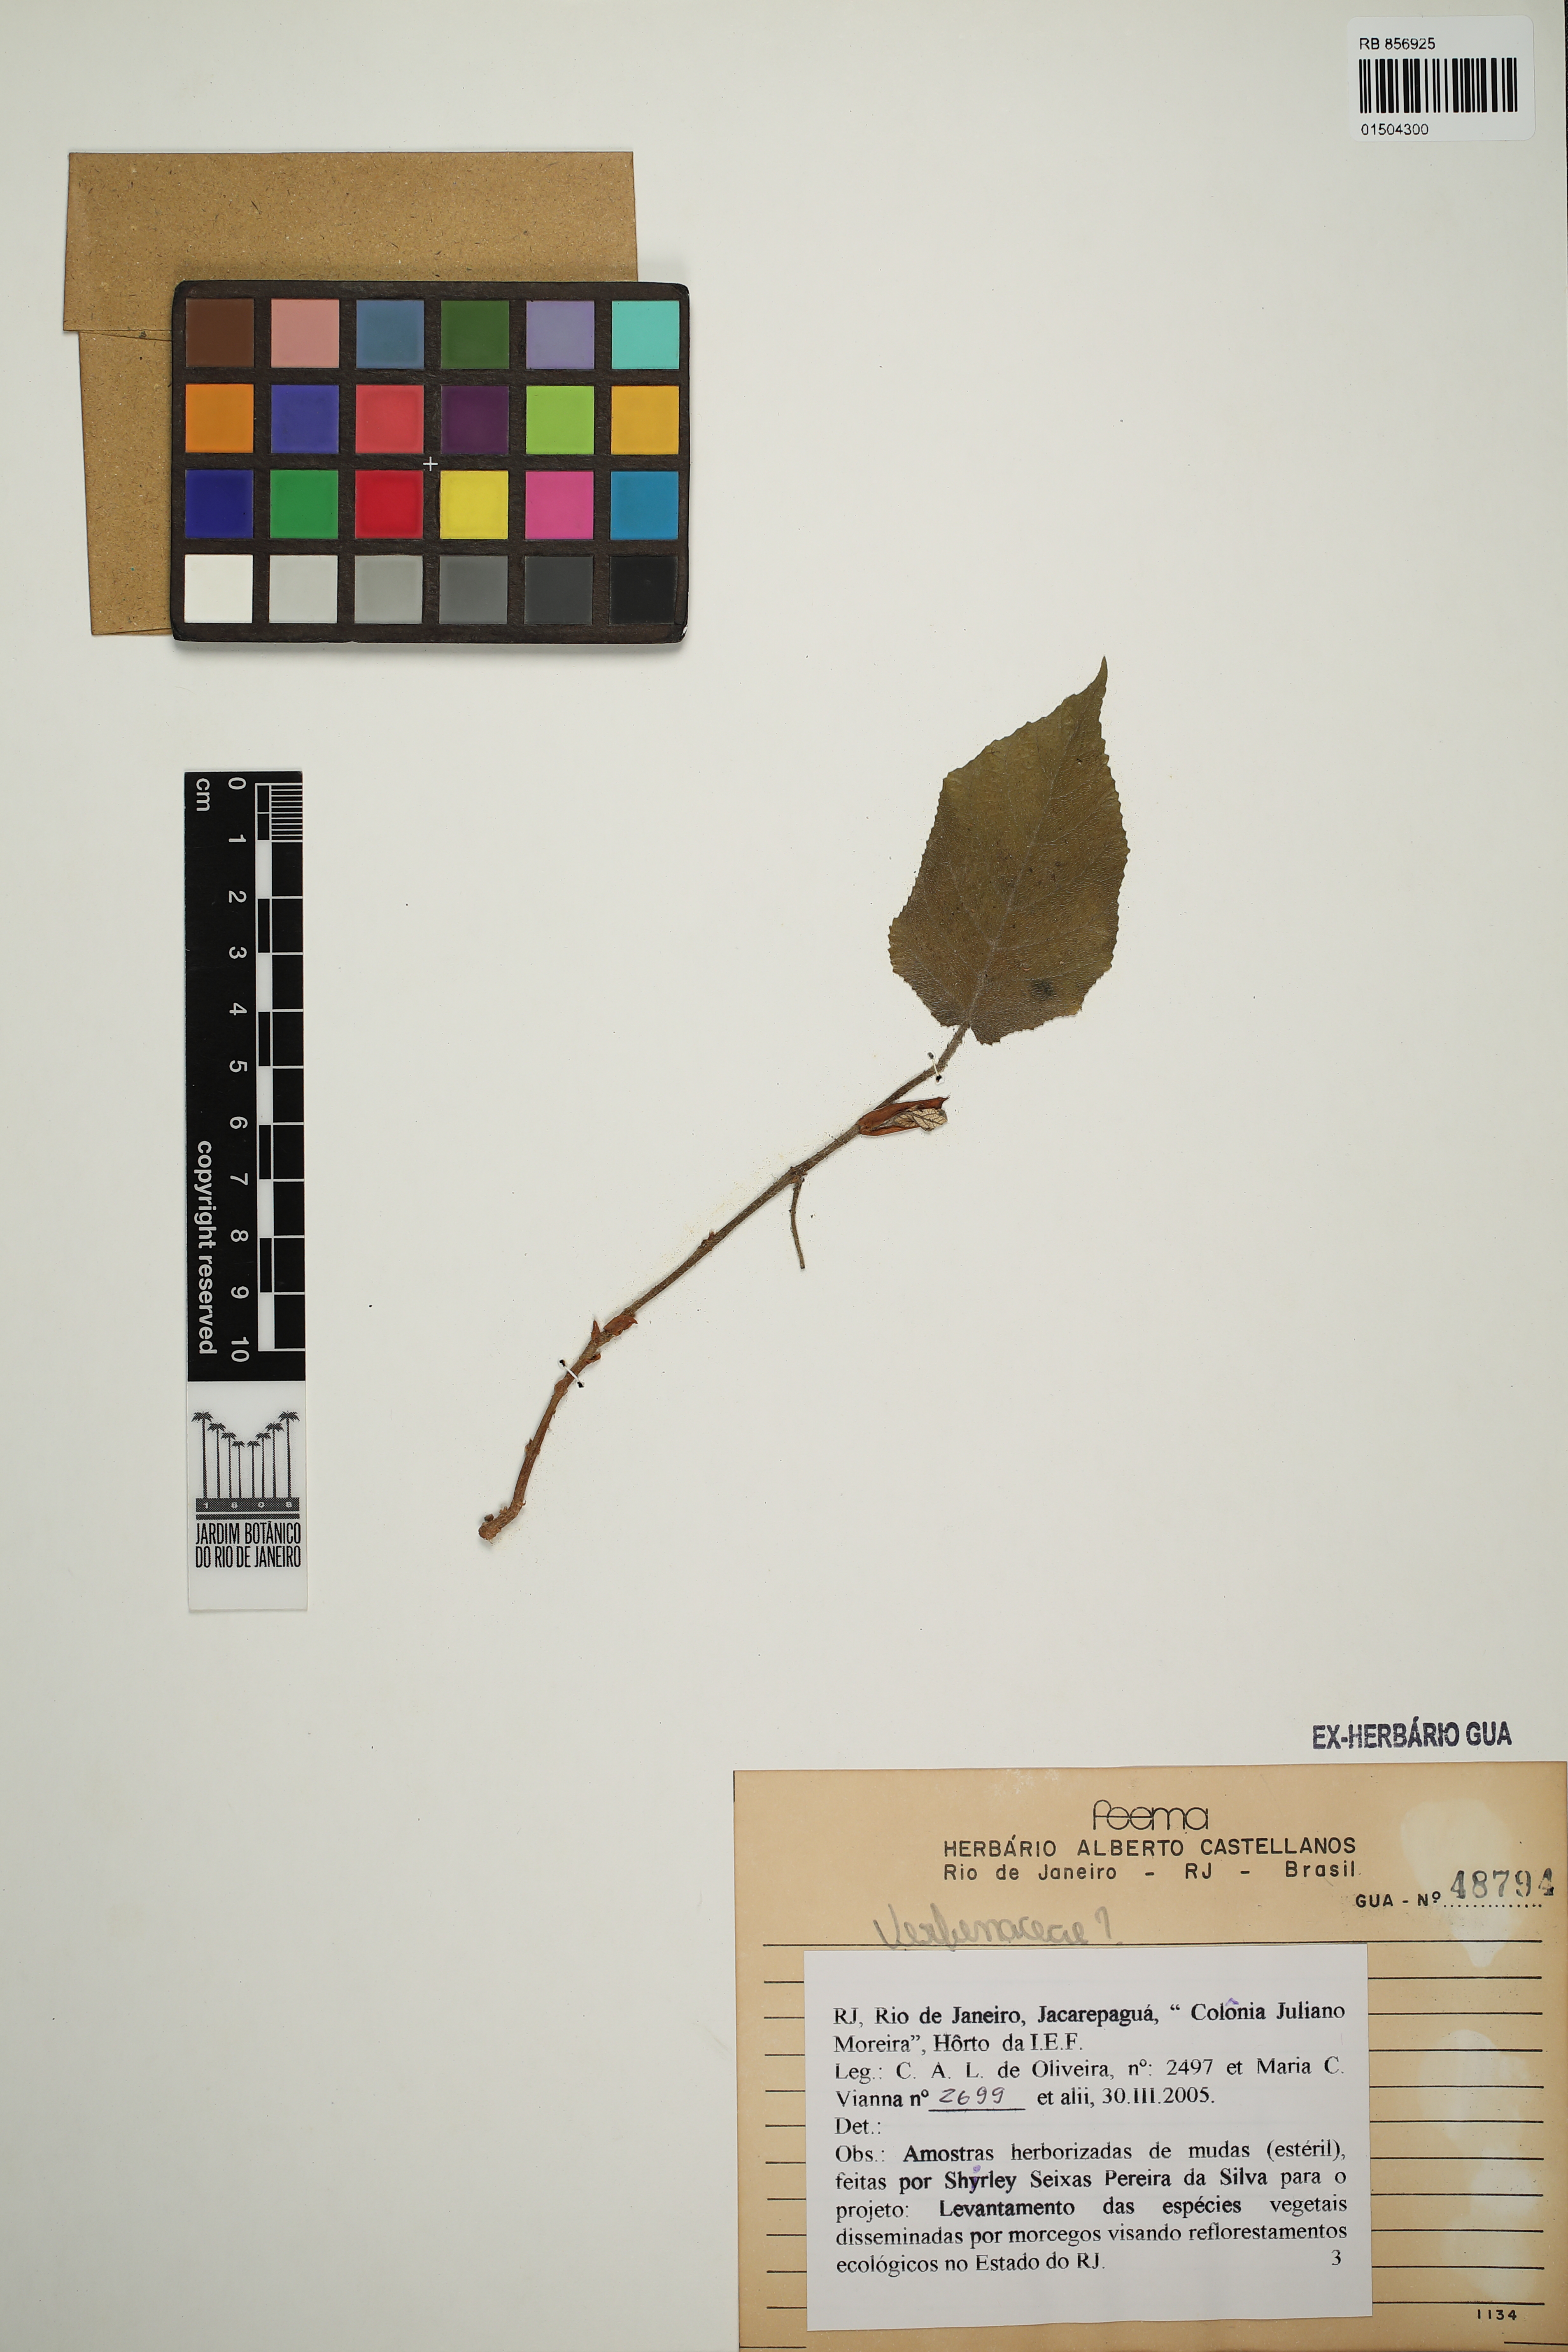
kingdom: Plantae
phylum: Tracheophyta
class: Magnoliopsida
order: Rosales
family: Urticaceae
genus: Cecropia
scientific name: Cecropia
